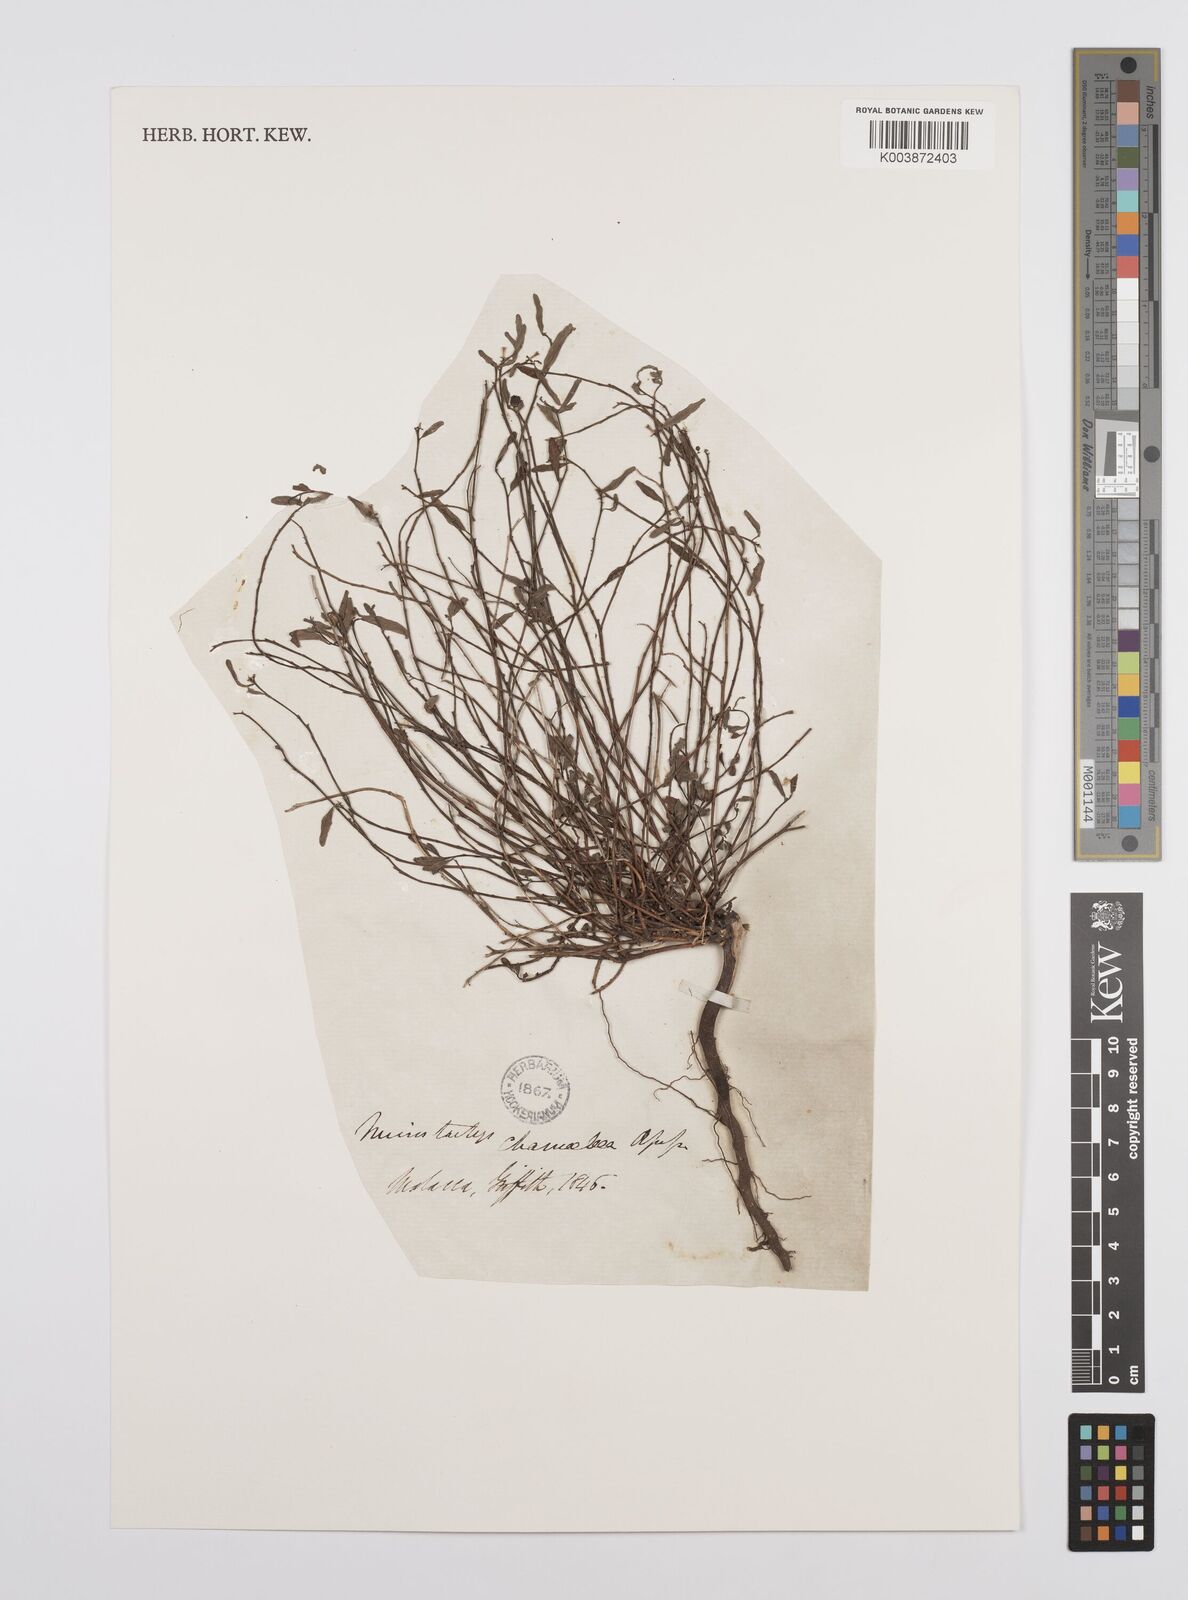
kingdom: Plantae
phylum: Tracheophyta
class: Magnoliopsida
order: Malpighiales
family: Euphorbiaceae
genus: Microstachys
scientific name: Microstachys chamaelea
